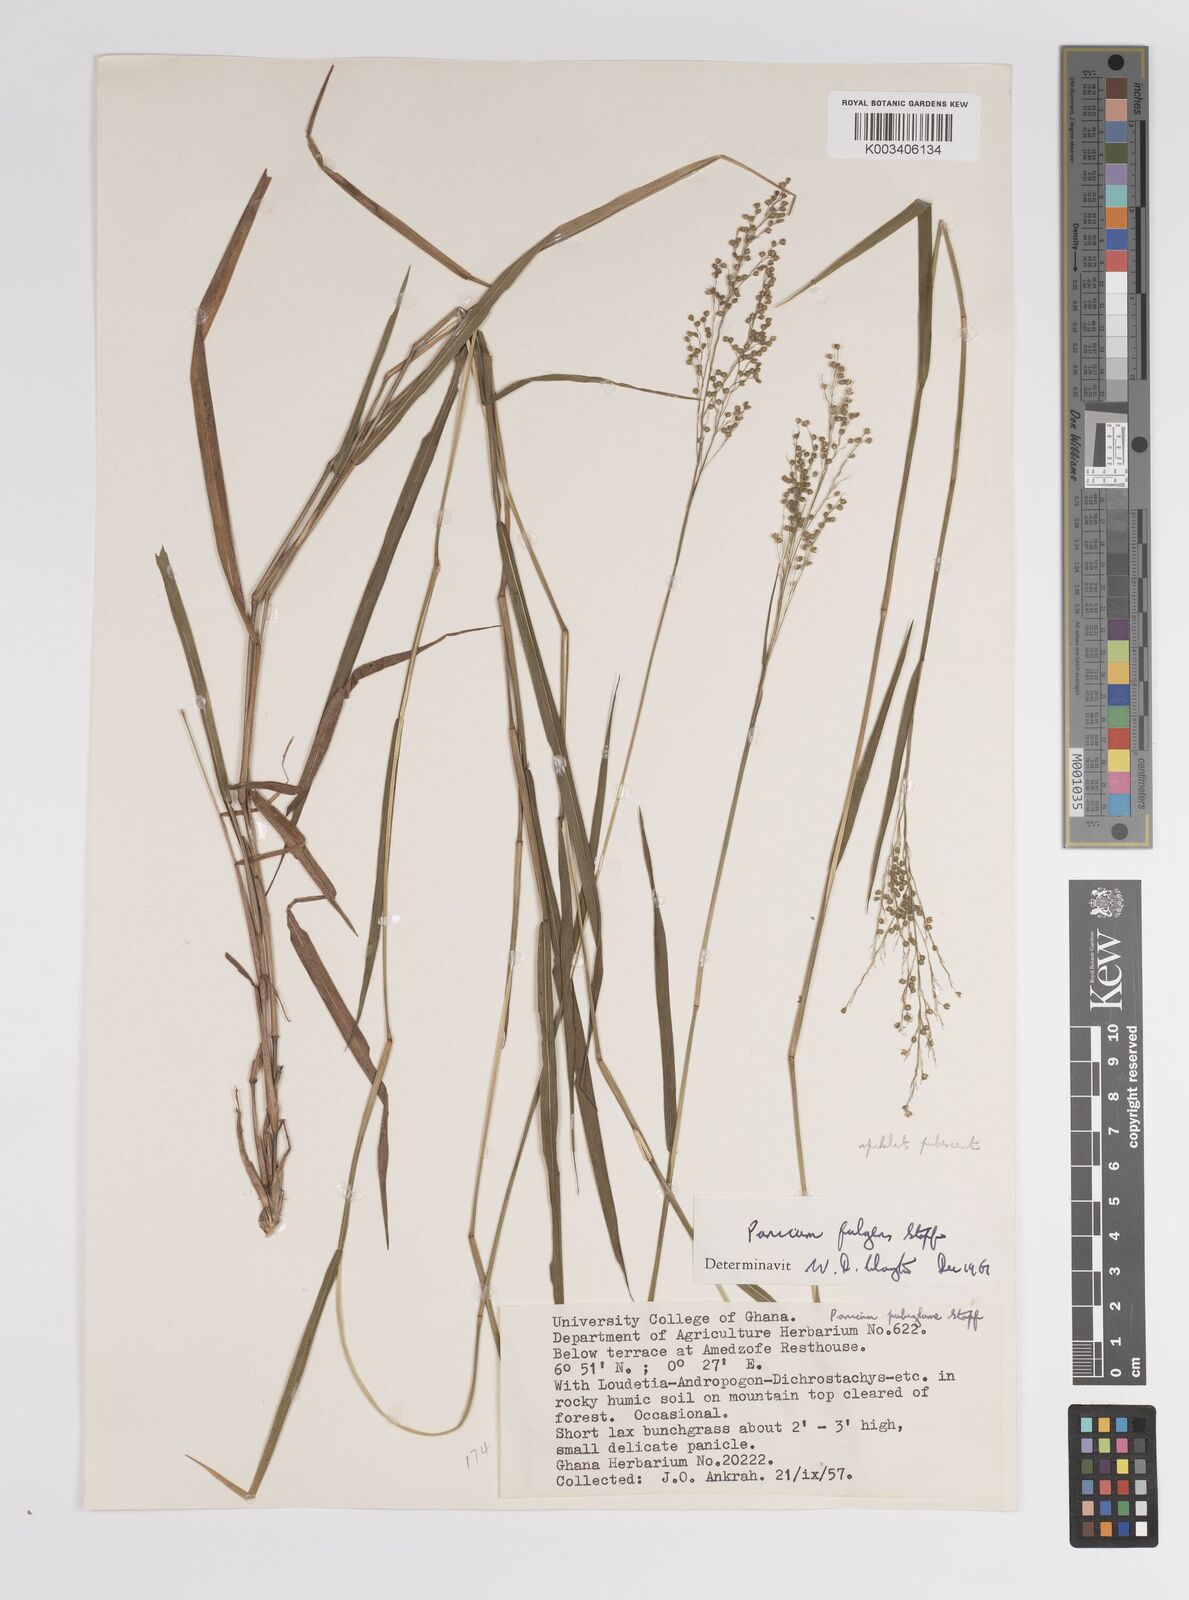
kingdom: Plantae
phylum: Tracheophyta
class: Liliopsida
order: Poales
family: Poaceae
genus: Trichanthecium
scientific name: Trichanthecium nervatum
